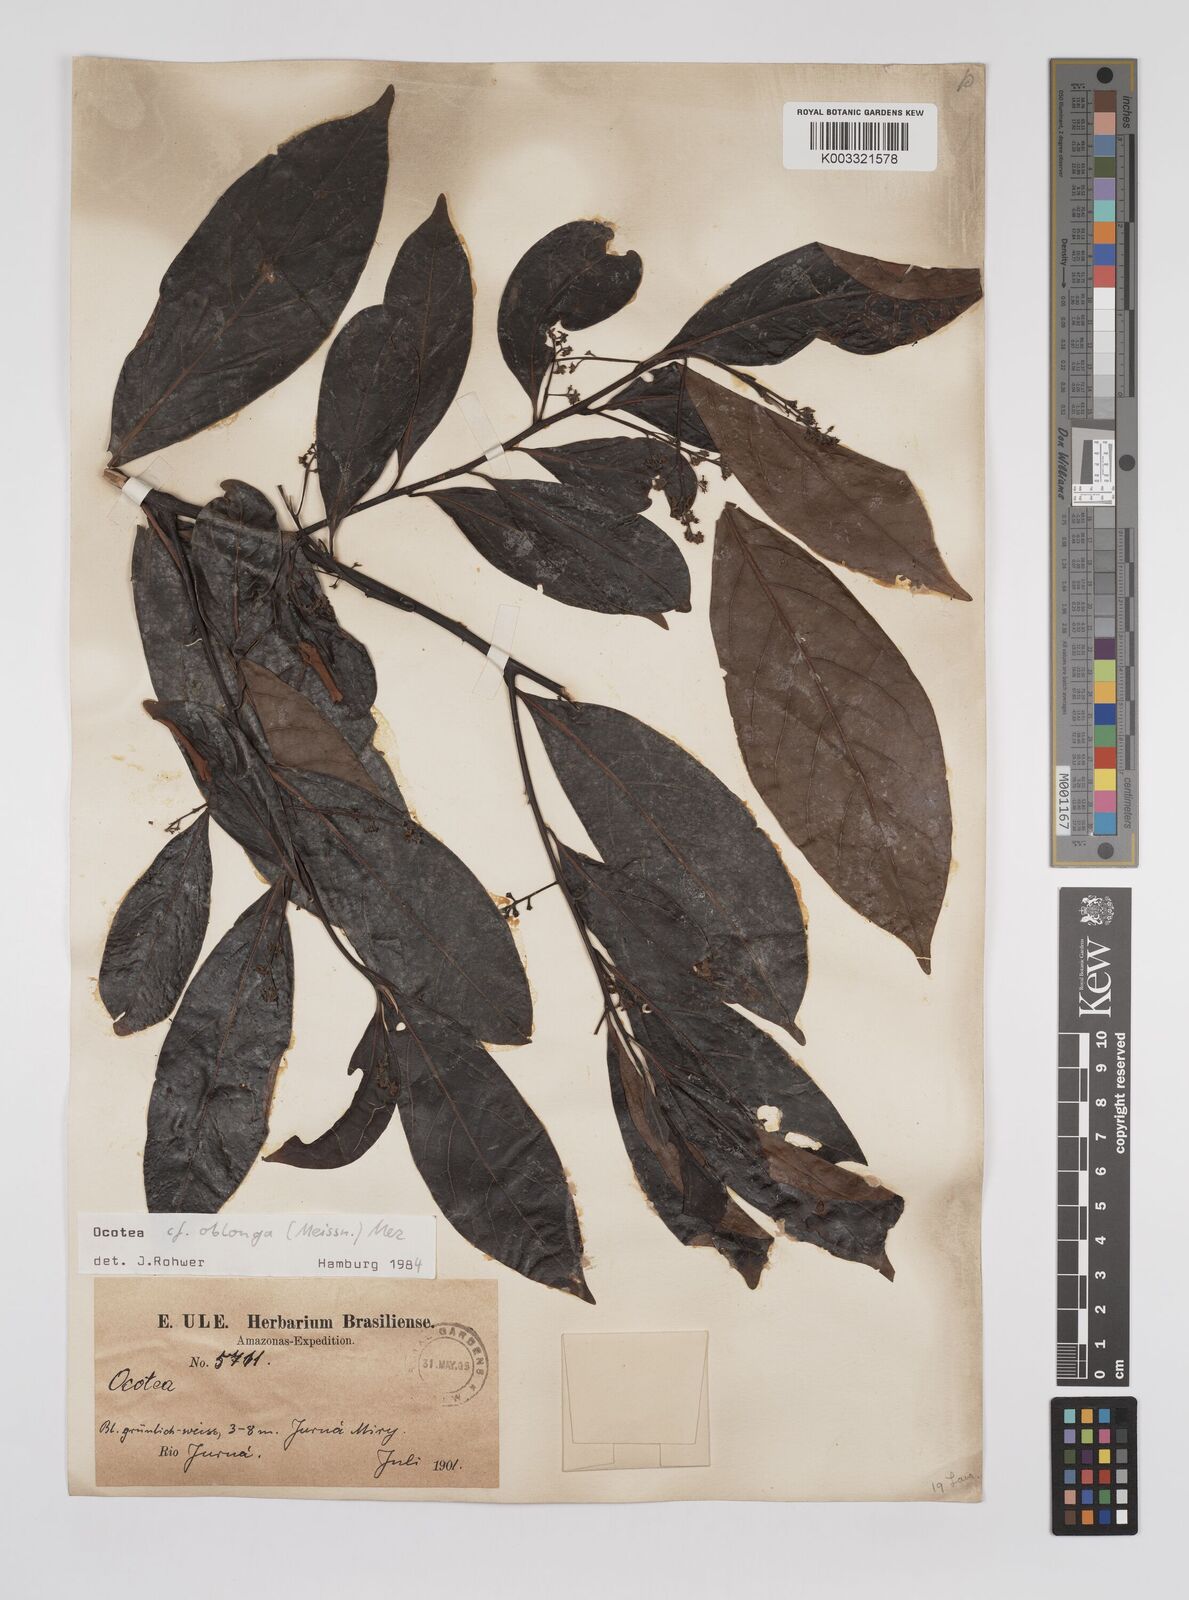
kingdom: Plantae
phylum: Tracheophyta
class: Magnoliopsida
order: Laurales
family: Lauraceae
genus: Ocotea
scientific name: Ocotea oblonga
